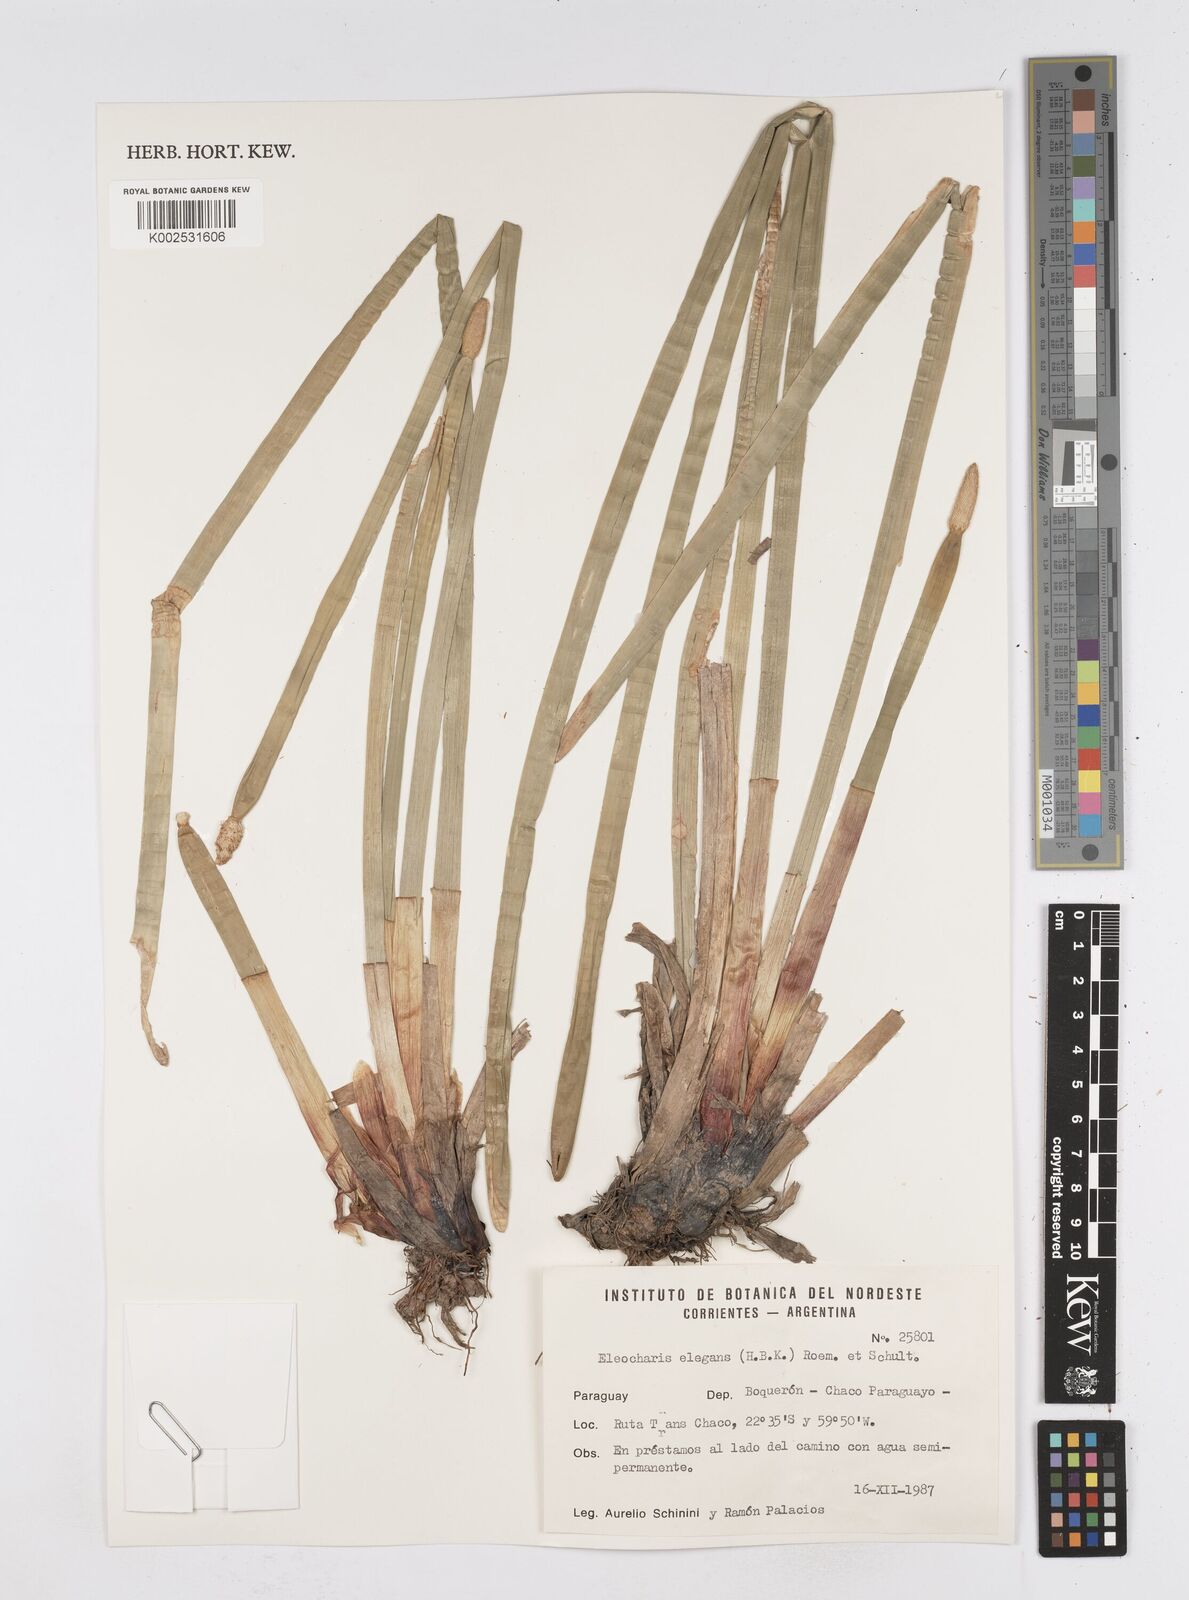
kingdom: Plantae
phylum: Tracheophyta
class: Liliopsida
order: Poales
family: Cyperaceae
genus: Eleocharis
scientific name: Eleocharis elegans
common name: Elegant spike-rush
